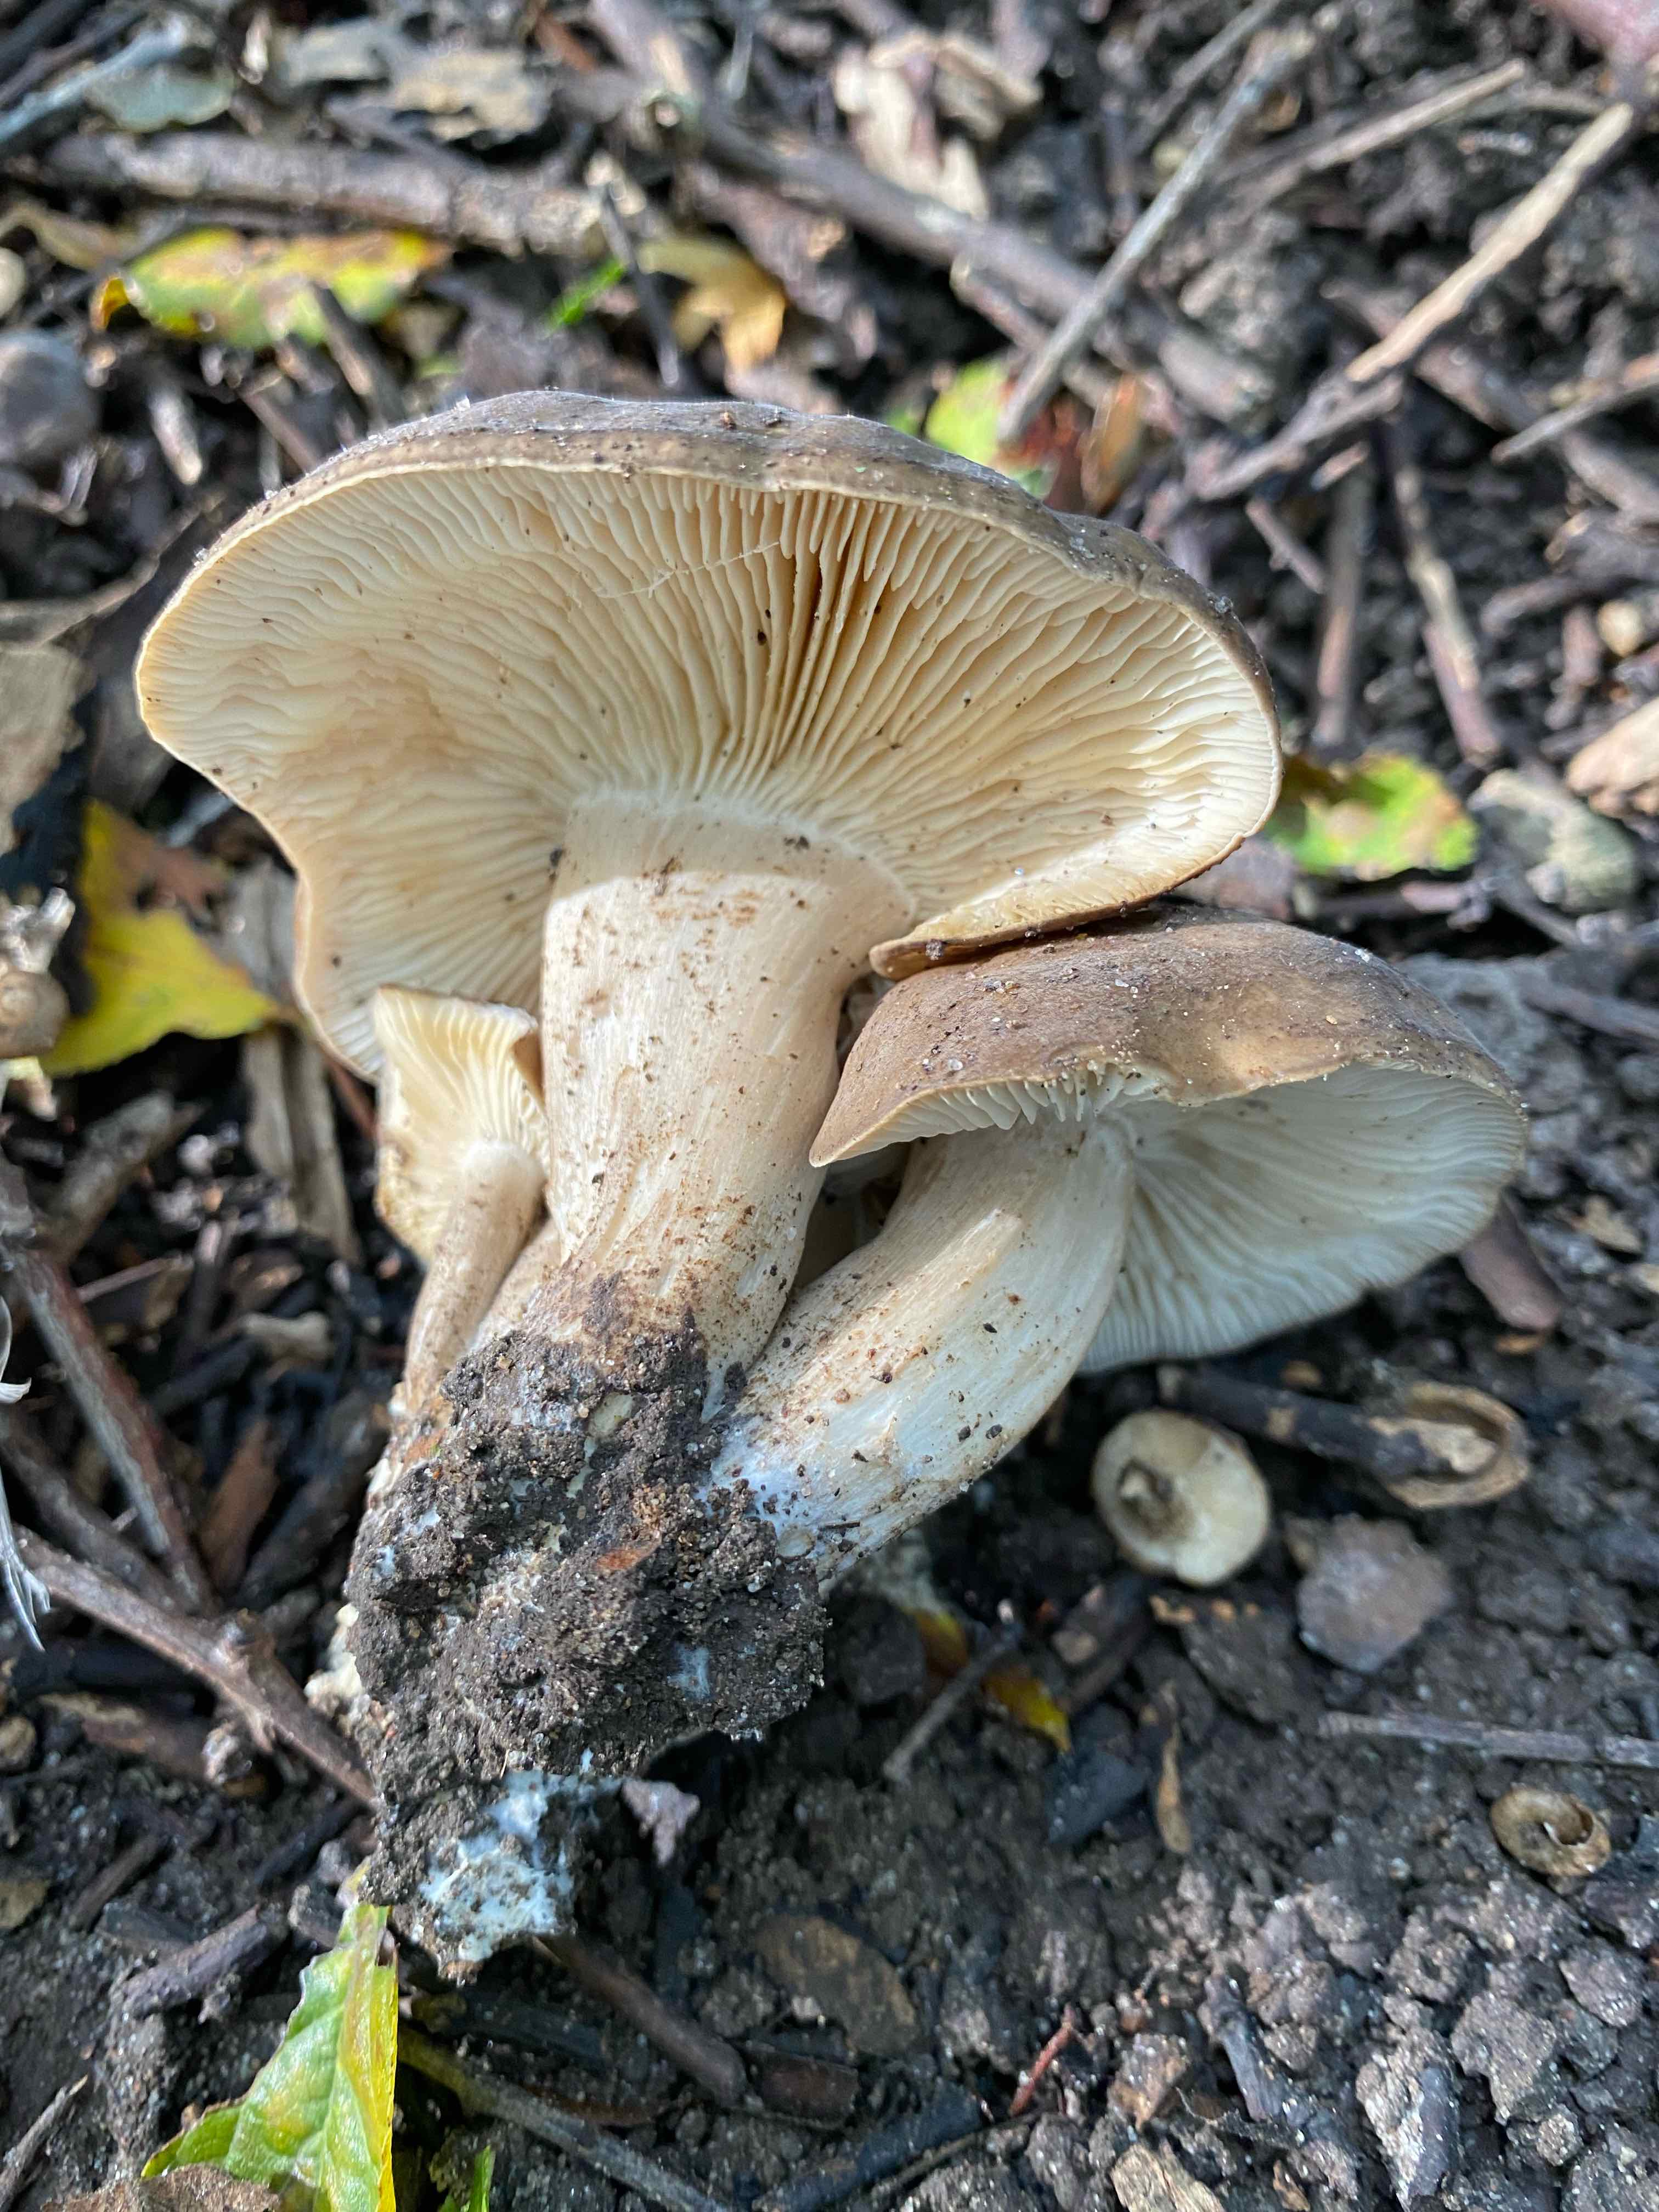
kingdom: Fungi
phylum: Basidiomycota
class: Agaricomycetes
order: Agaricales
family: Lyophyllaceae
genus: Lyophyllum
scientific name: Lyophyllum
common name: gråblad
